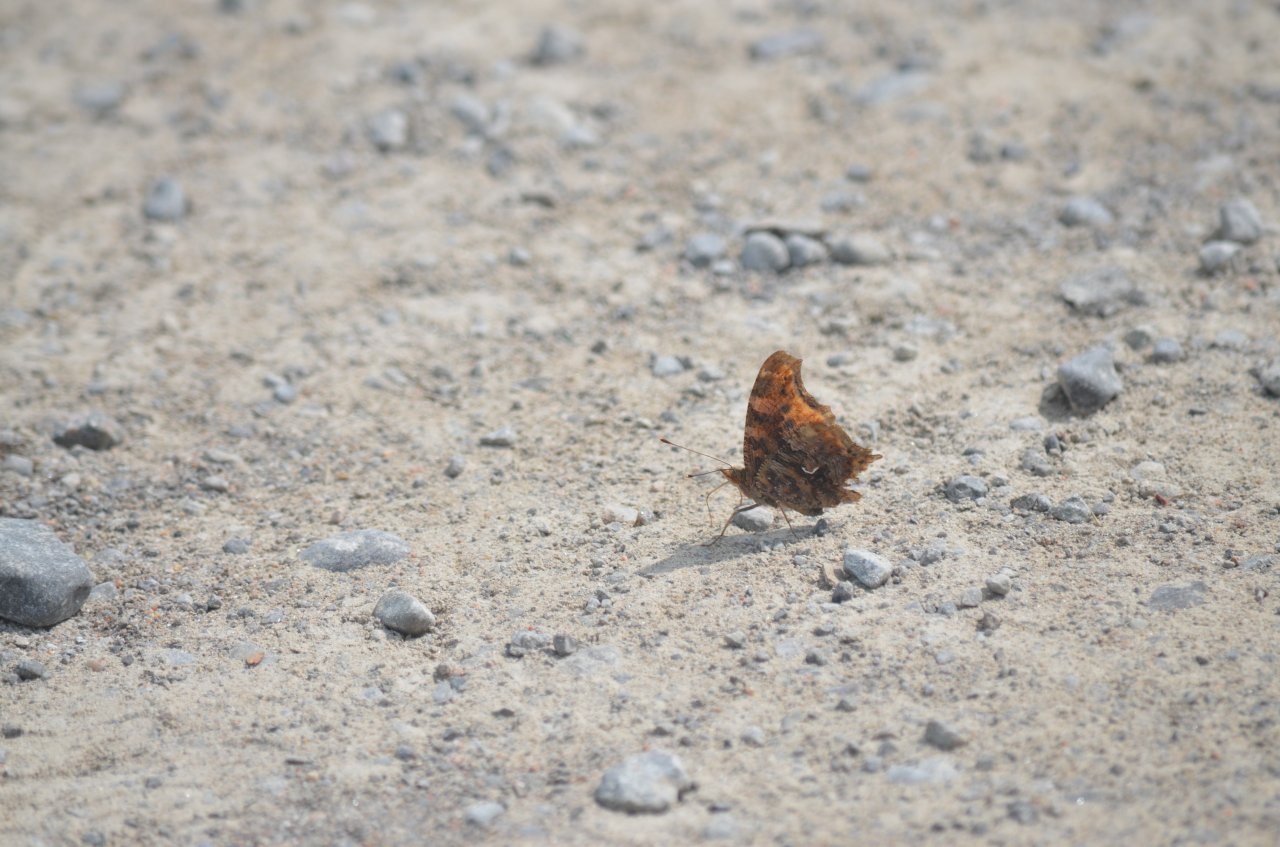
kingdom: Animalia
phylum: Arthropoda
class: Insecta
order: Lepidoptera
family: Nymphalidae
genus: Polygonia
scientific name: Polygonia comma
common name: Eastern Comma
